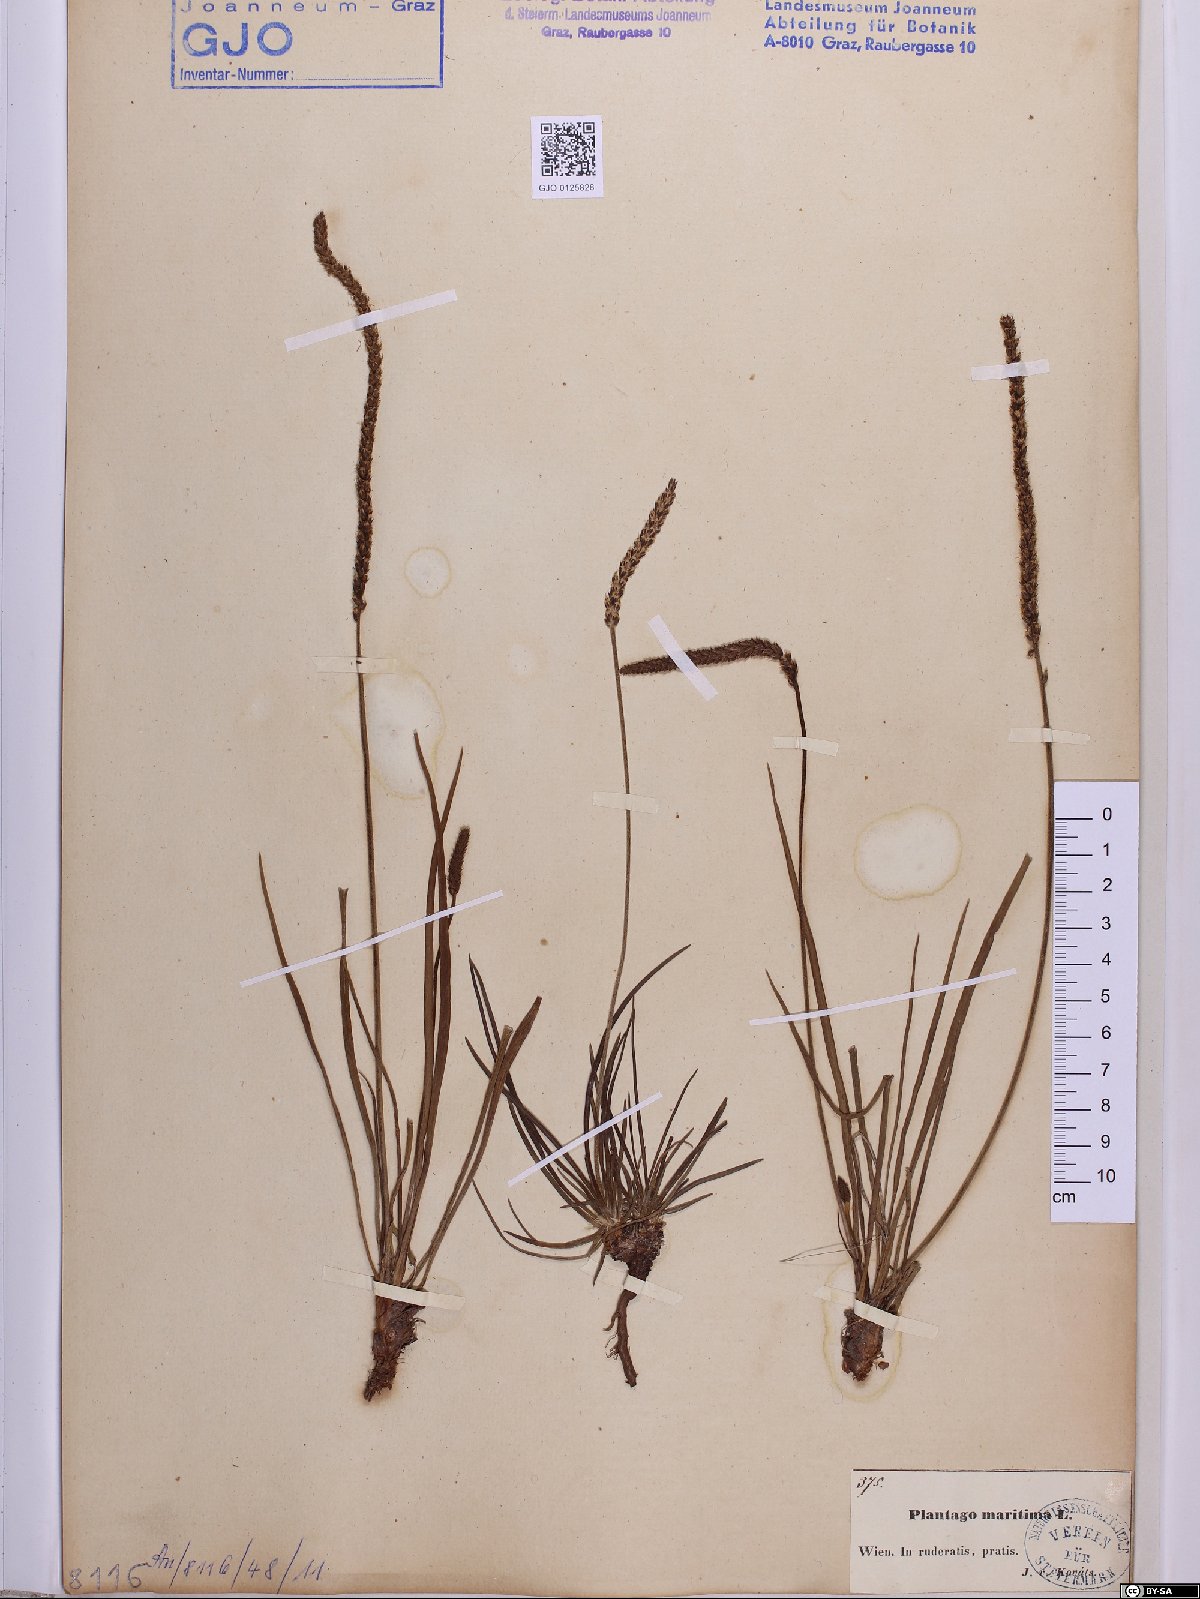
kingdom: Plantae
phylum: Tracheophyta
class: Magnoliopsida
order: Lamiales
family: Plantaginaceae
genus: Plantago
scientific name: Plantago maritima
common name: Sea plantain
